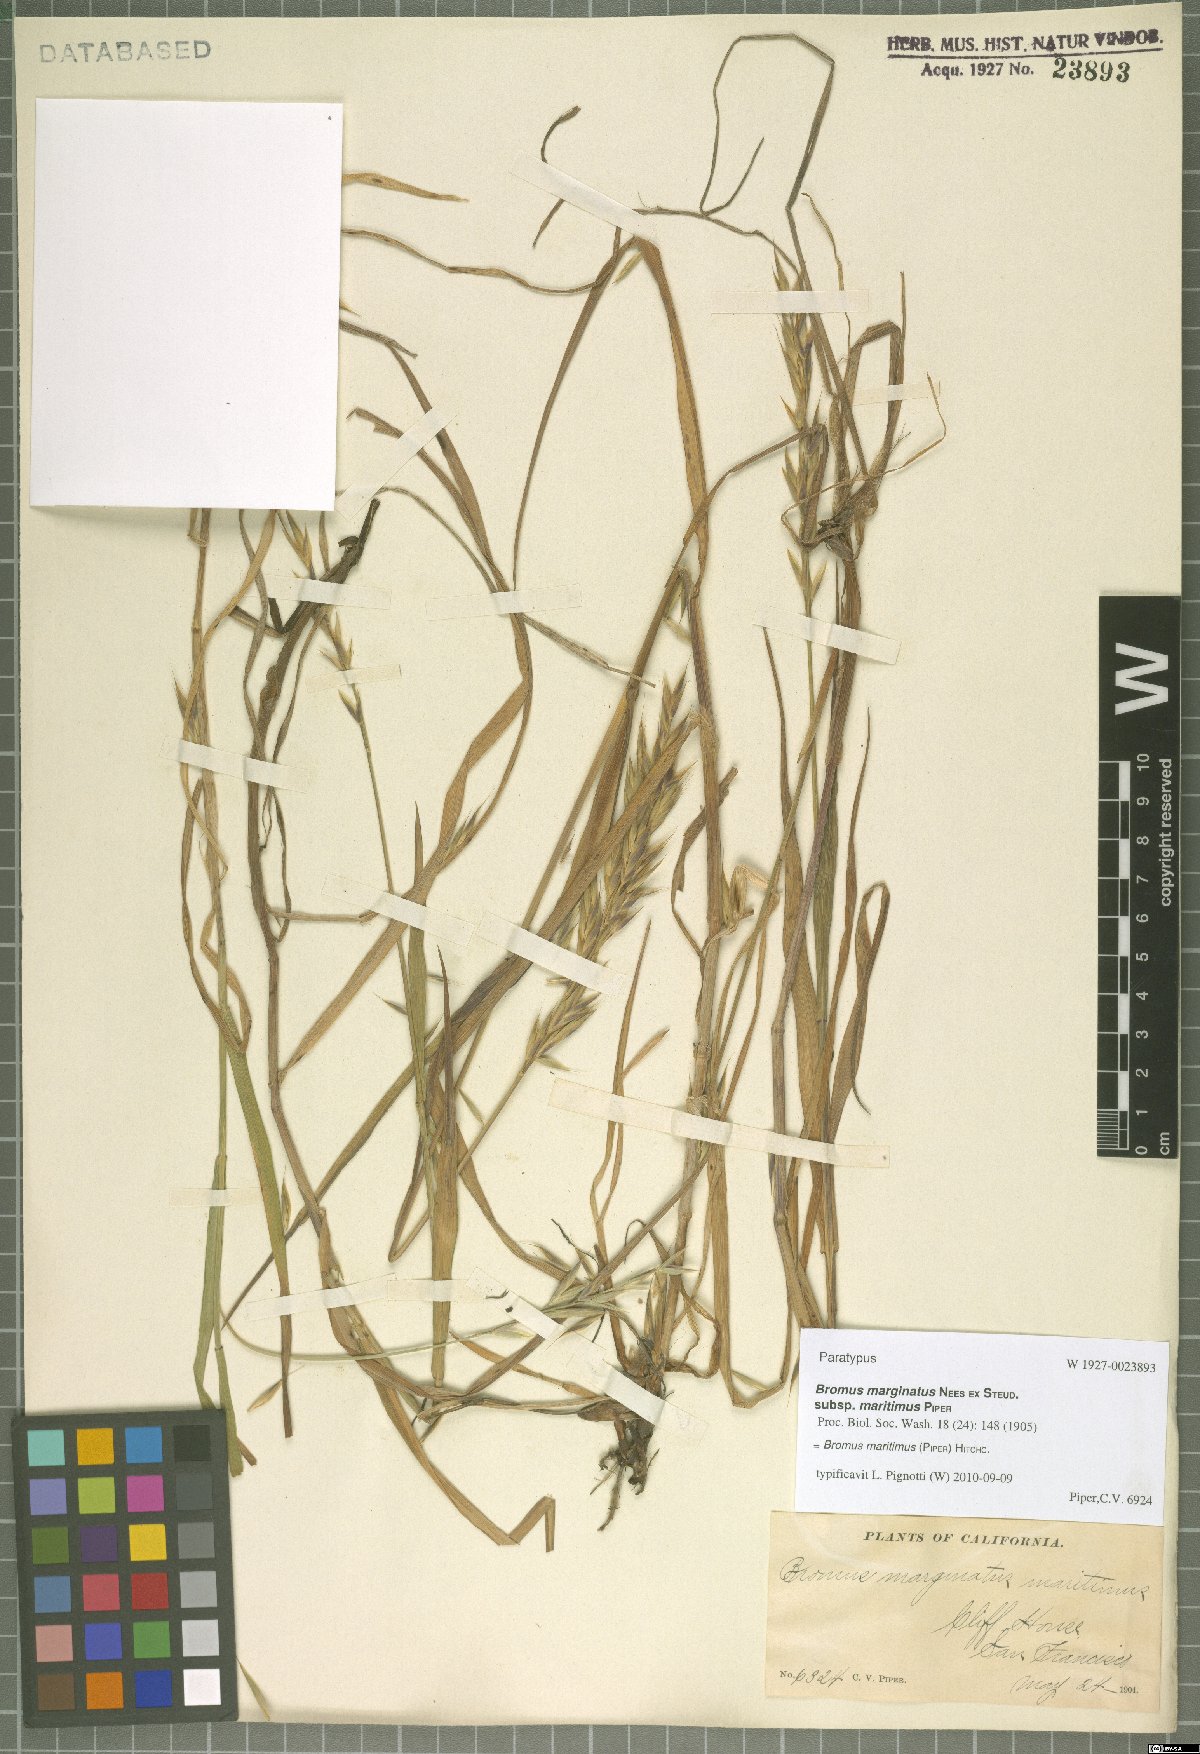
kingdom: Plantae
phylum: Tracheophyta
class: Liliopsida
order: Poales
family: Poaceae
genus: Bromus
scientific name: Bromus maritimus
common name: Maritime brome
